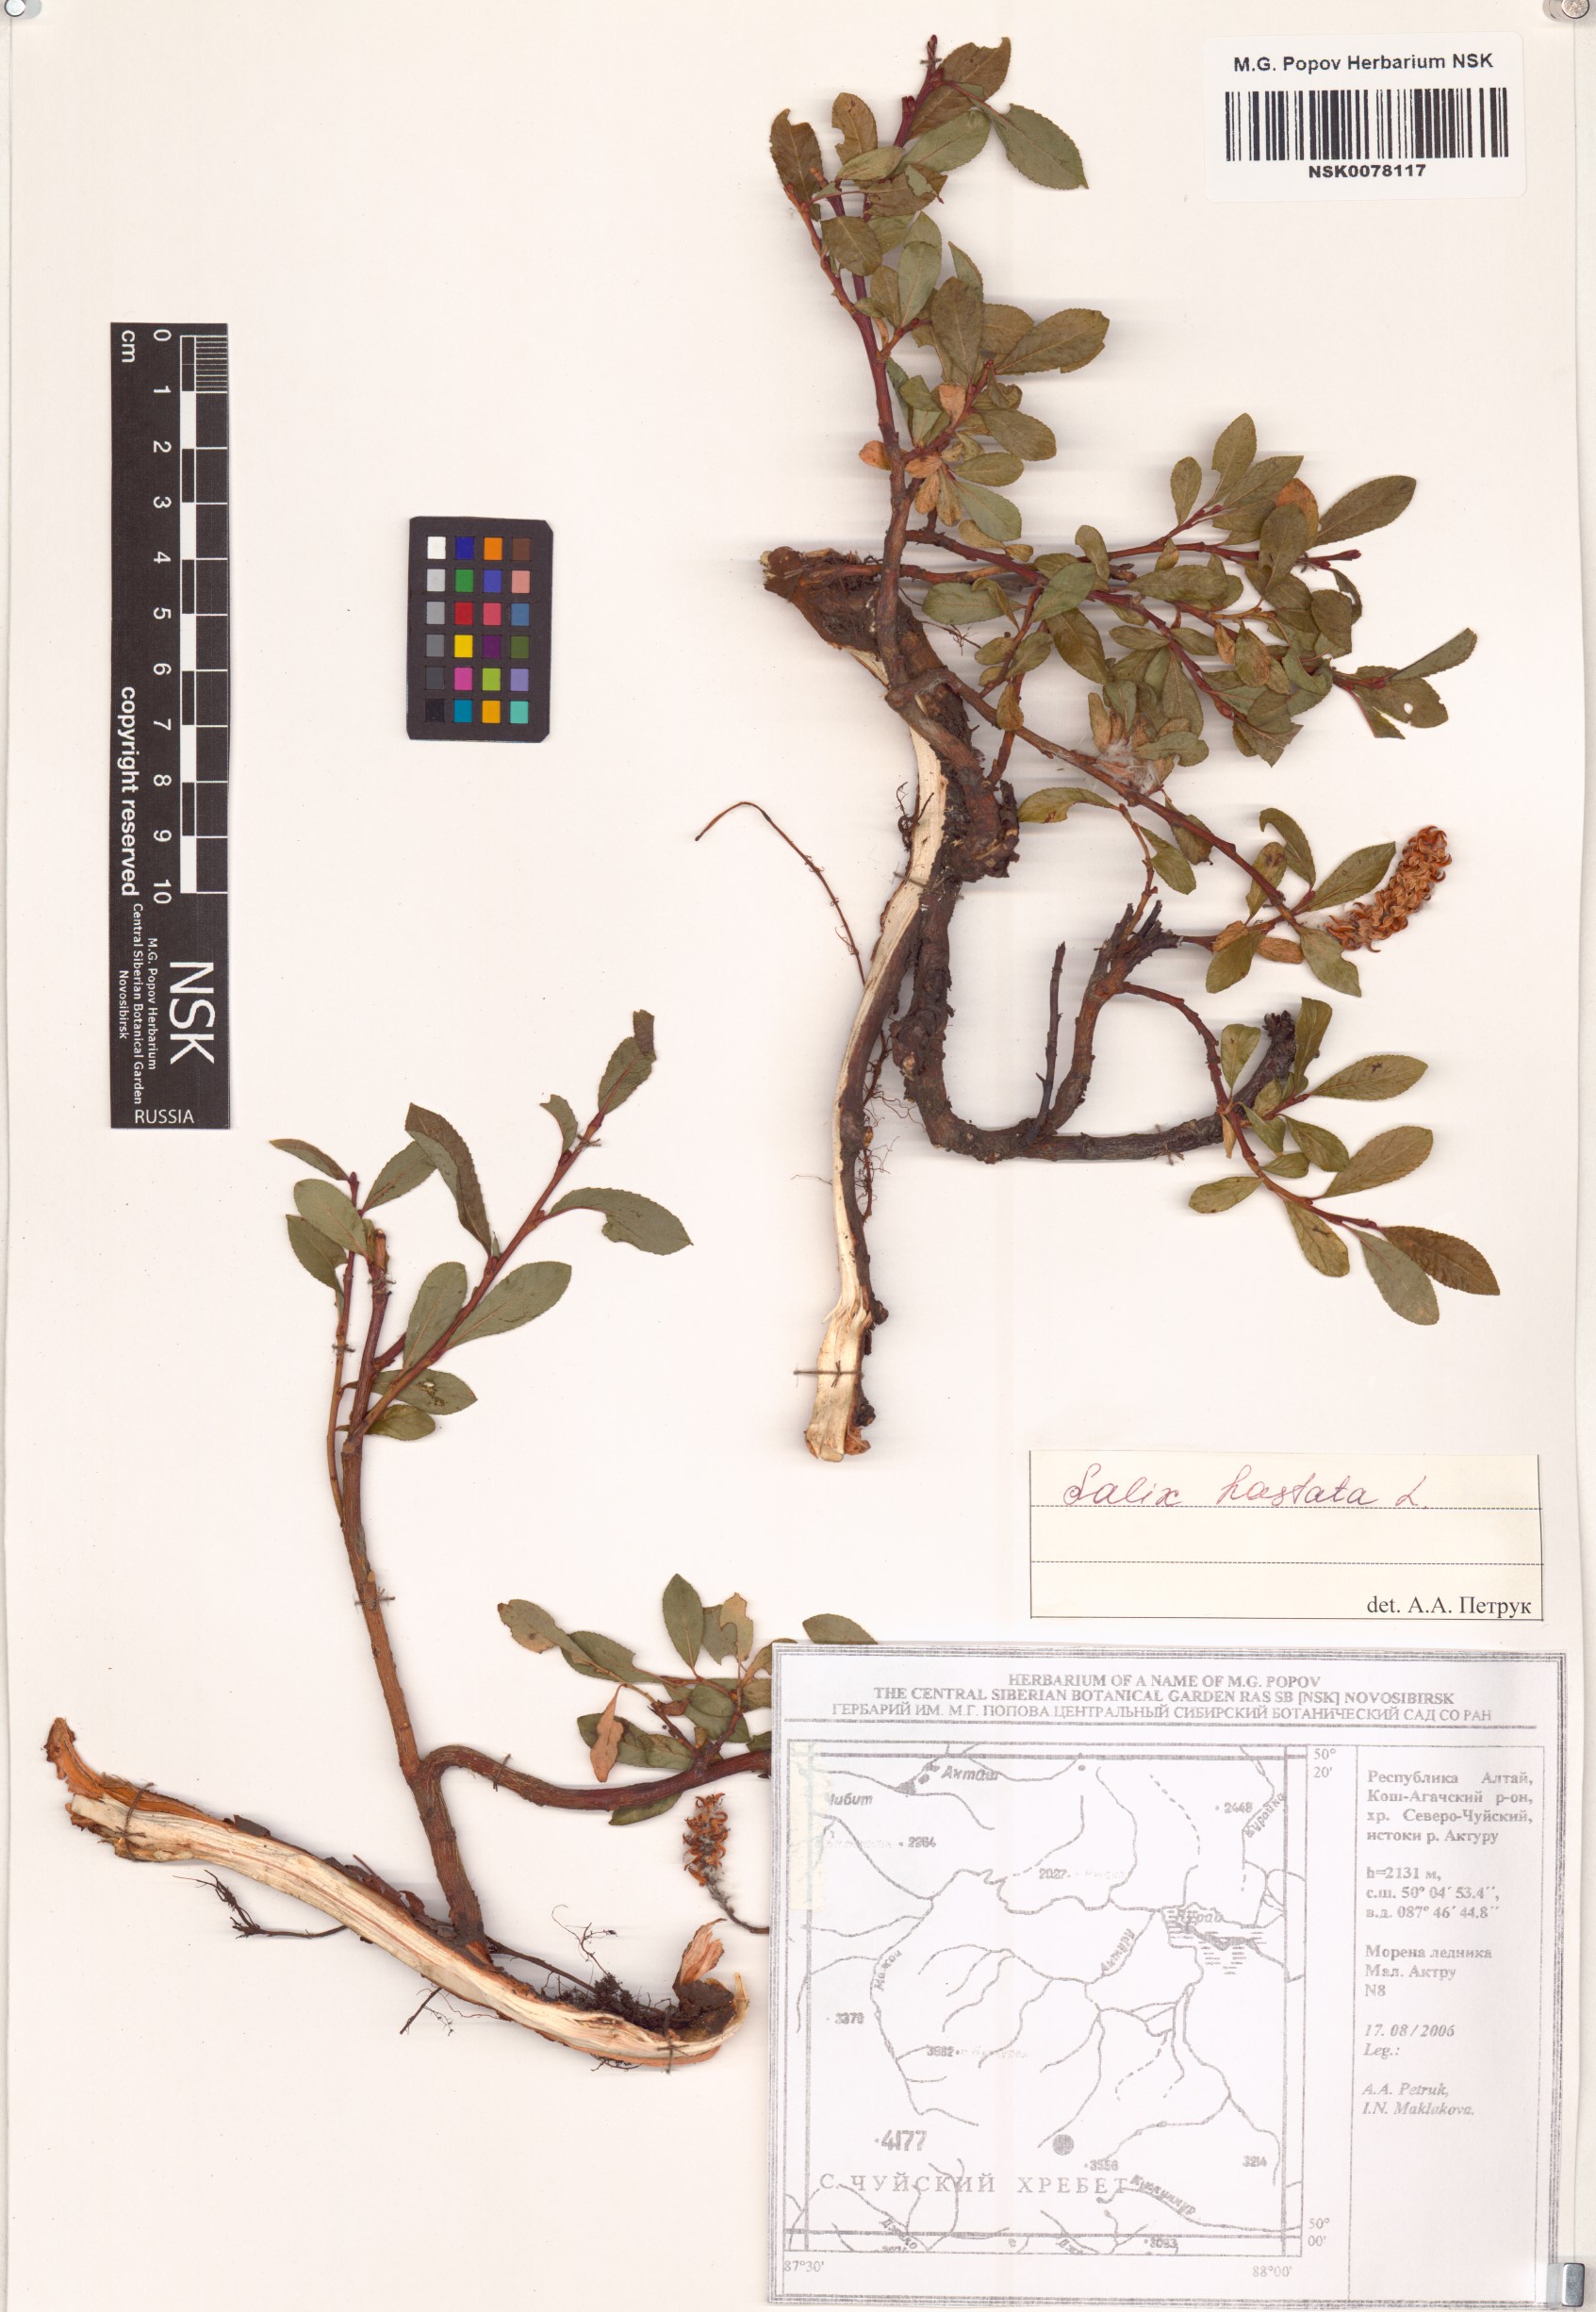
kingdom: Plantae
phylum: Tracheophyta
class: Magnoliopsida
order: Malpighiales
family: Salicaceae
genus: Salix
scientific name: Salix hastata
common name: Halberd willow
